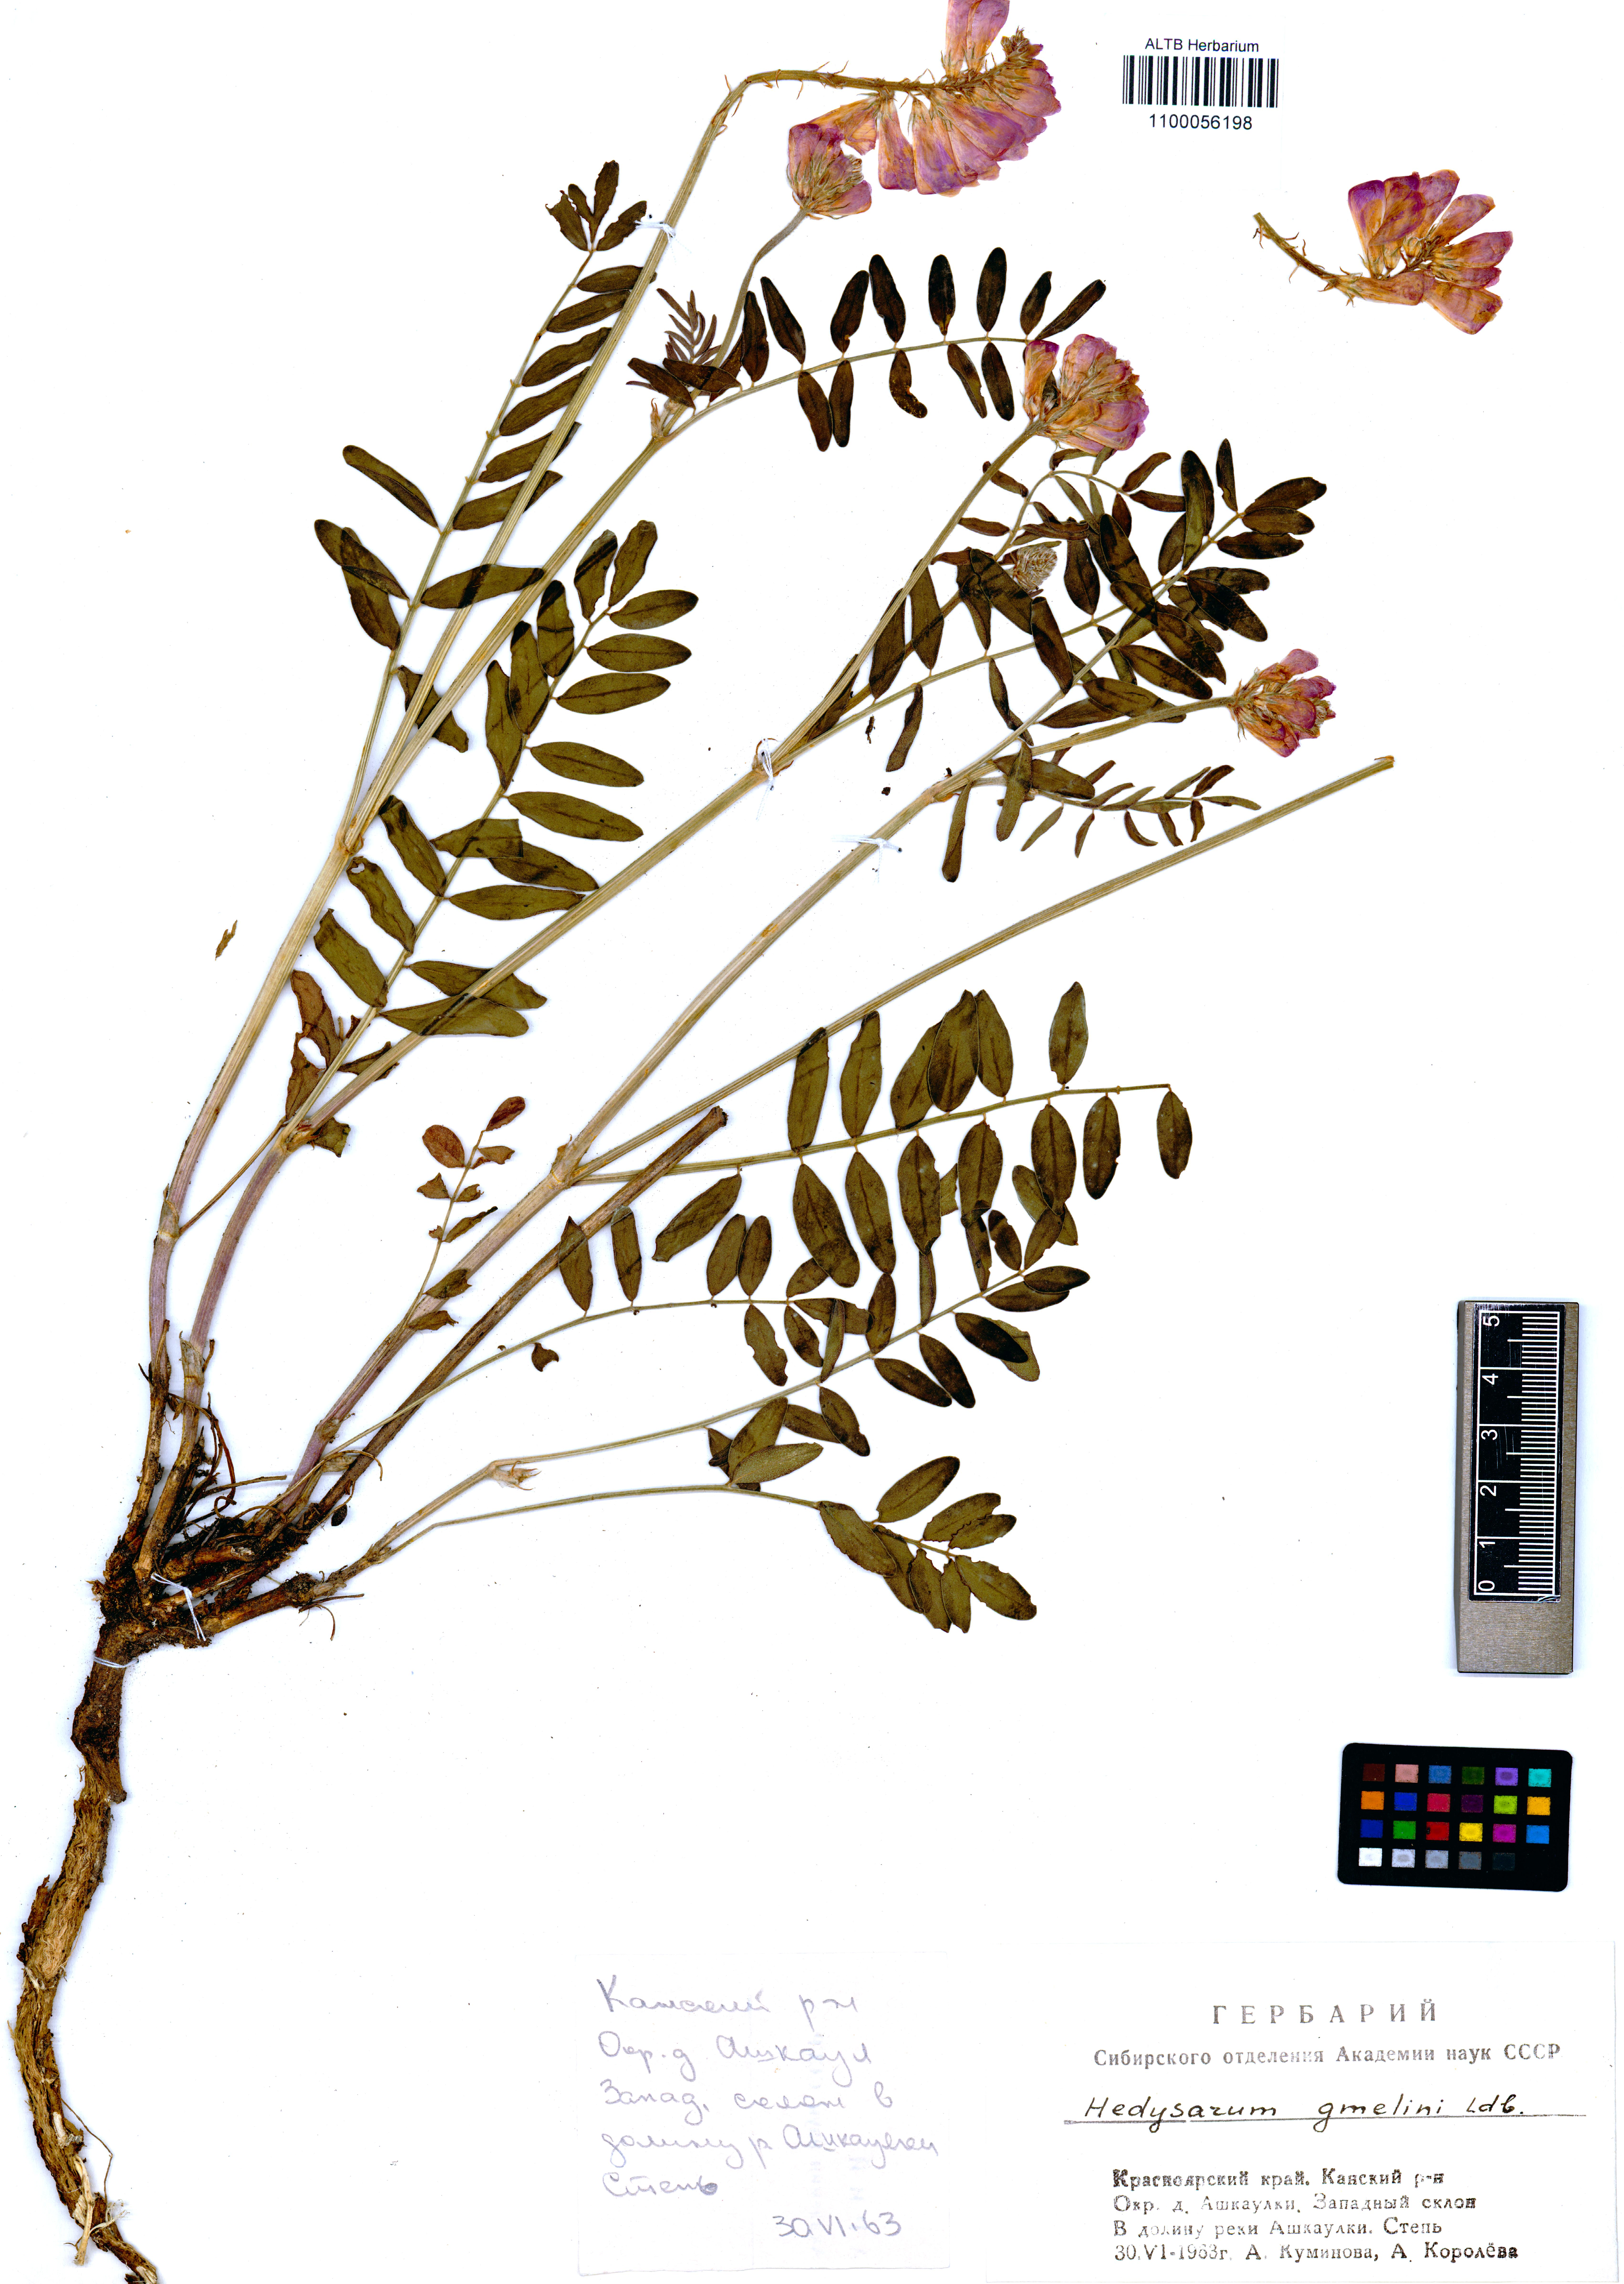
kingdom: Plantae
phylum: Tracheophyta
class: Magnoliopsida
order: Fabales
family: Fabaceae
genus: Hedysarum
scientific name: Hedysarum gmelinii
